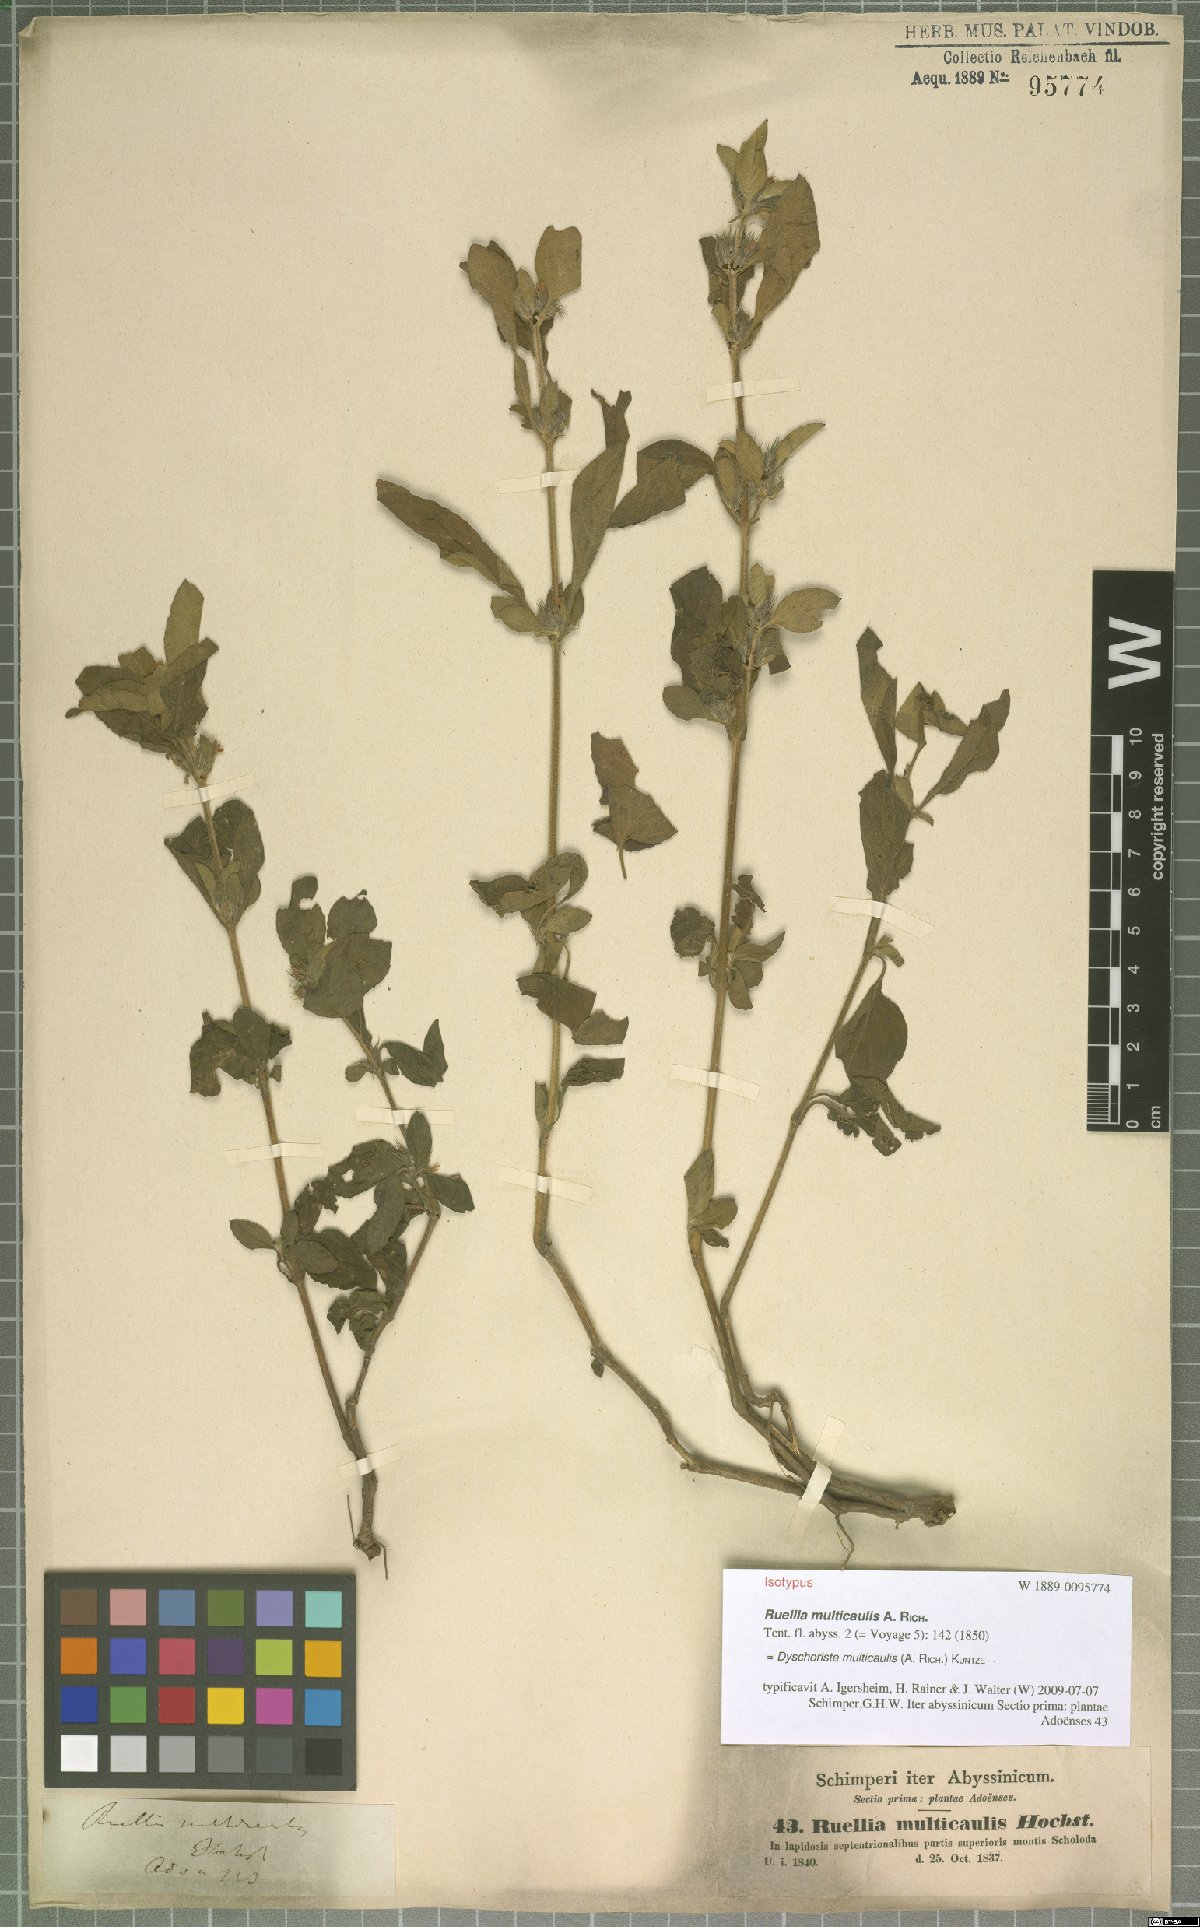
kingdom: Plantae
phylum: Tracheophyta
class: Magnoliopsida
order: Lamiales
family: Acanthaceae
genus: Dyschoriste
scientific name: Dyschoriste multicaulis
